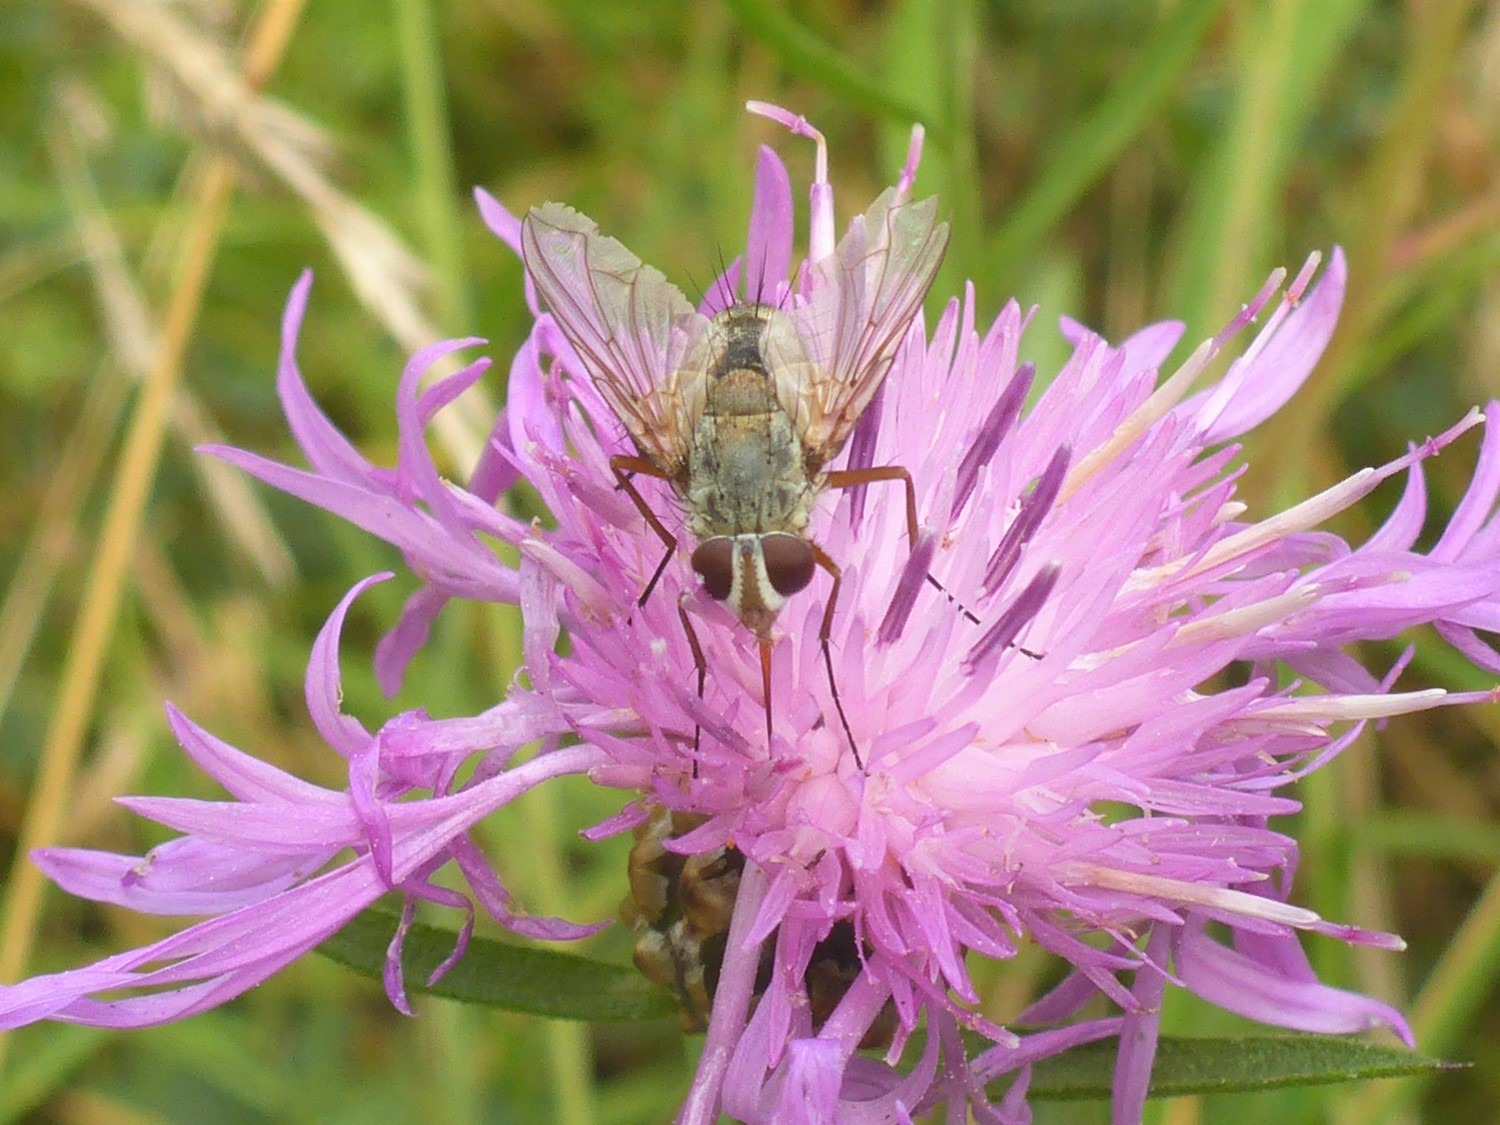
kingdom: Animalia
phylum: Arthropoda
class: Insecta
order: Diptera
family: Tachinidae
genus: Prosena
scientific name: Prosena siberita
